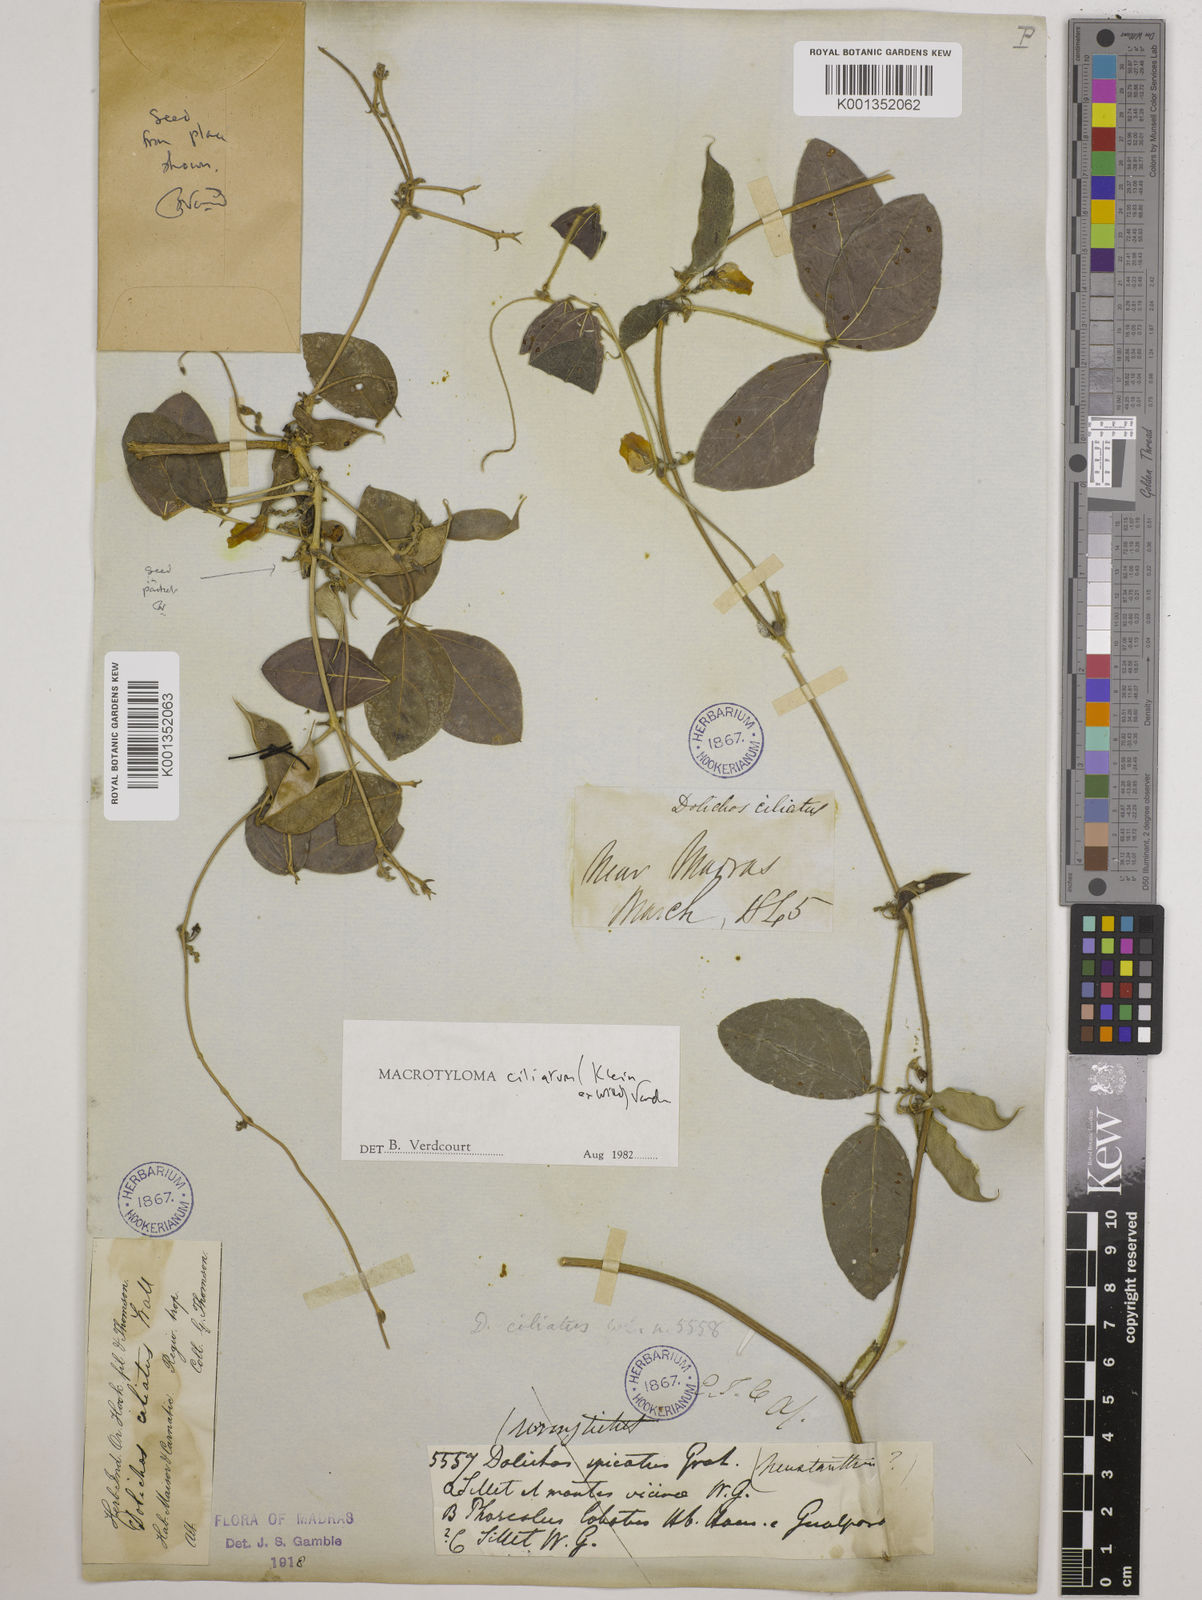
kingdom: Plantae
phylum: Tracheophyta
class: Magnoliopsida
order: Fabales
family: Fabaceae
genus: Macrotyloma
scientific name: Macrotyloma ciliatum
